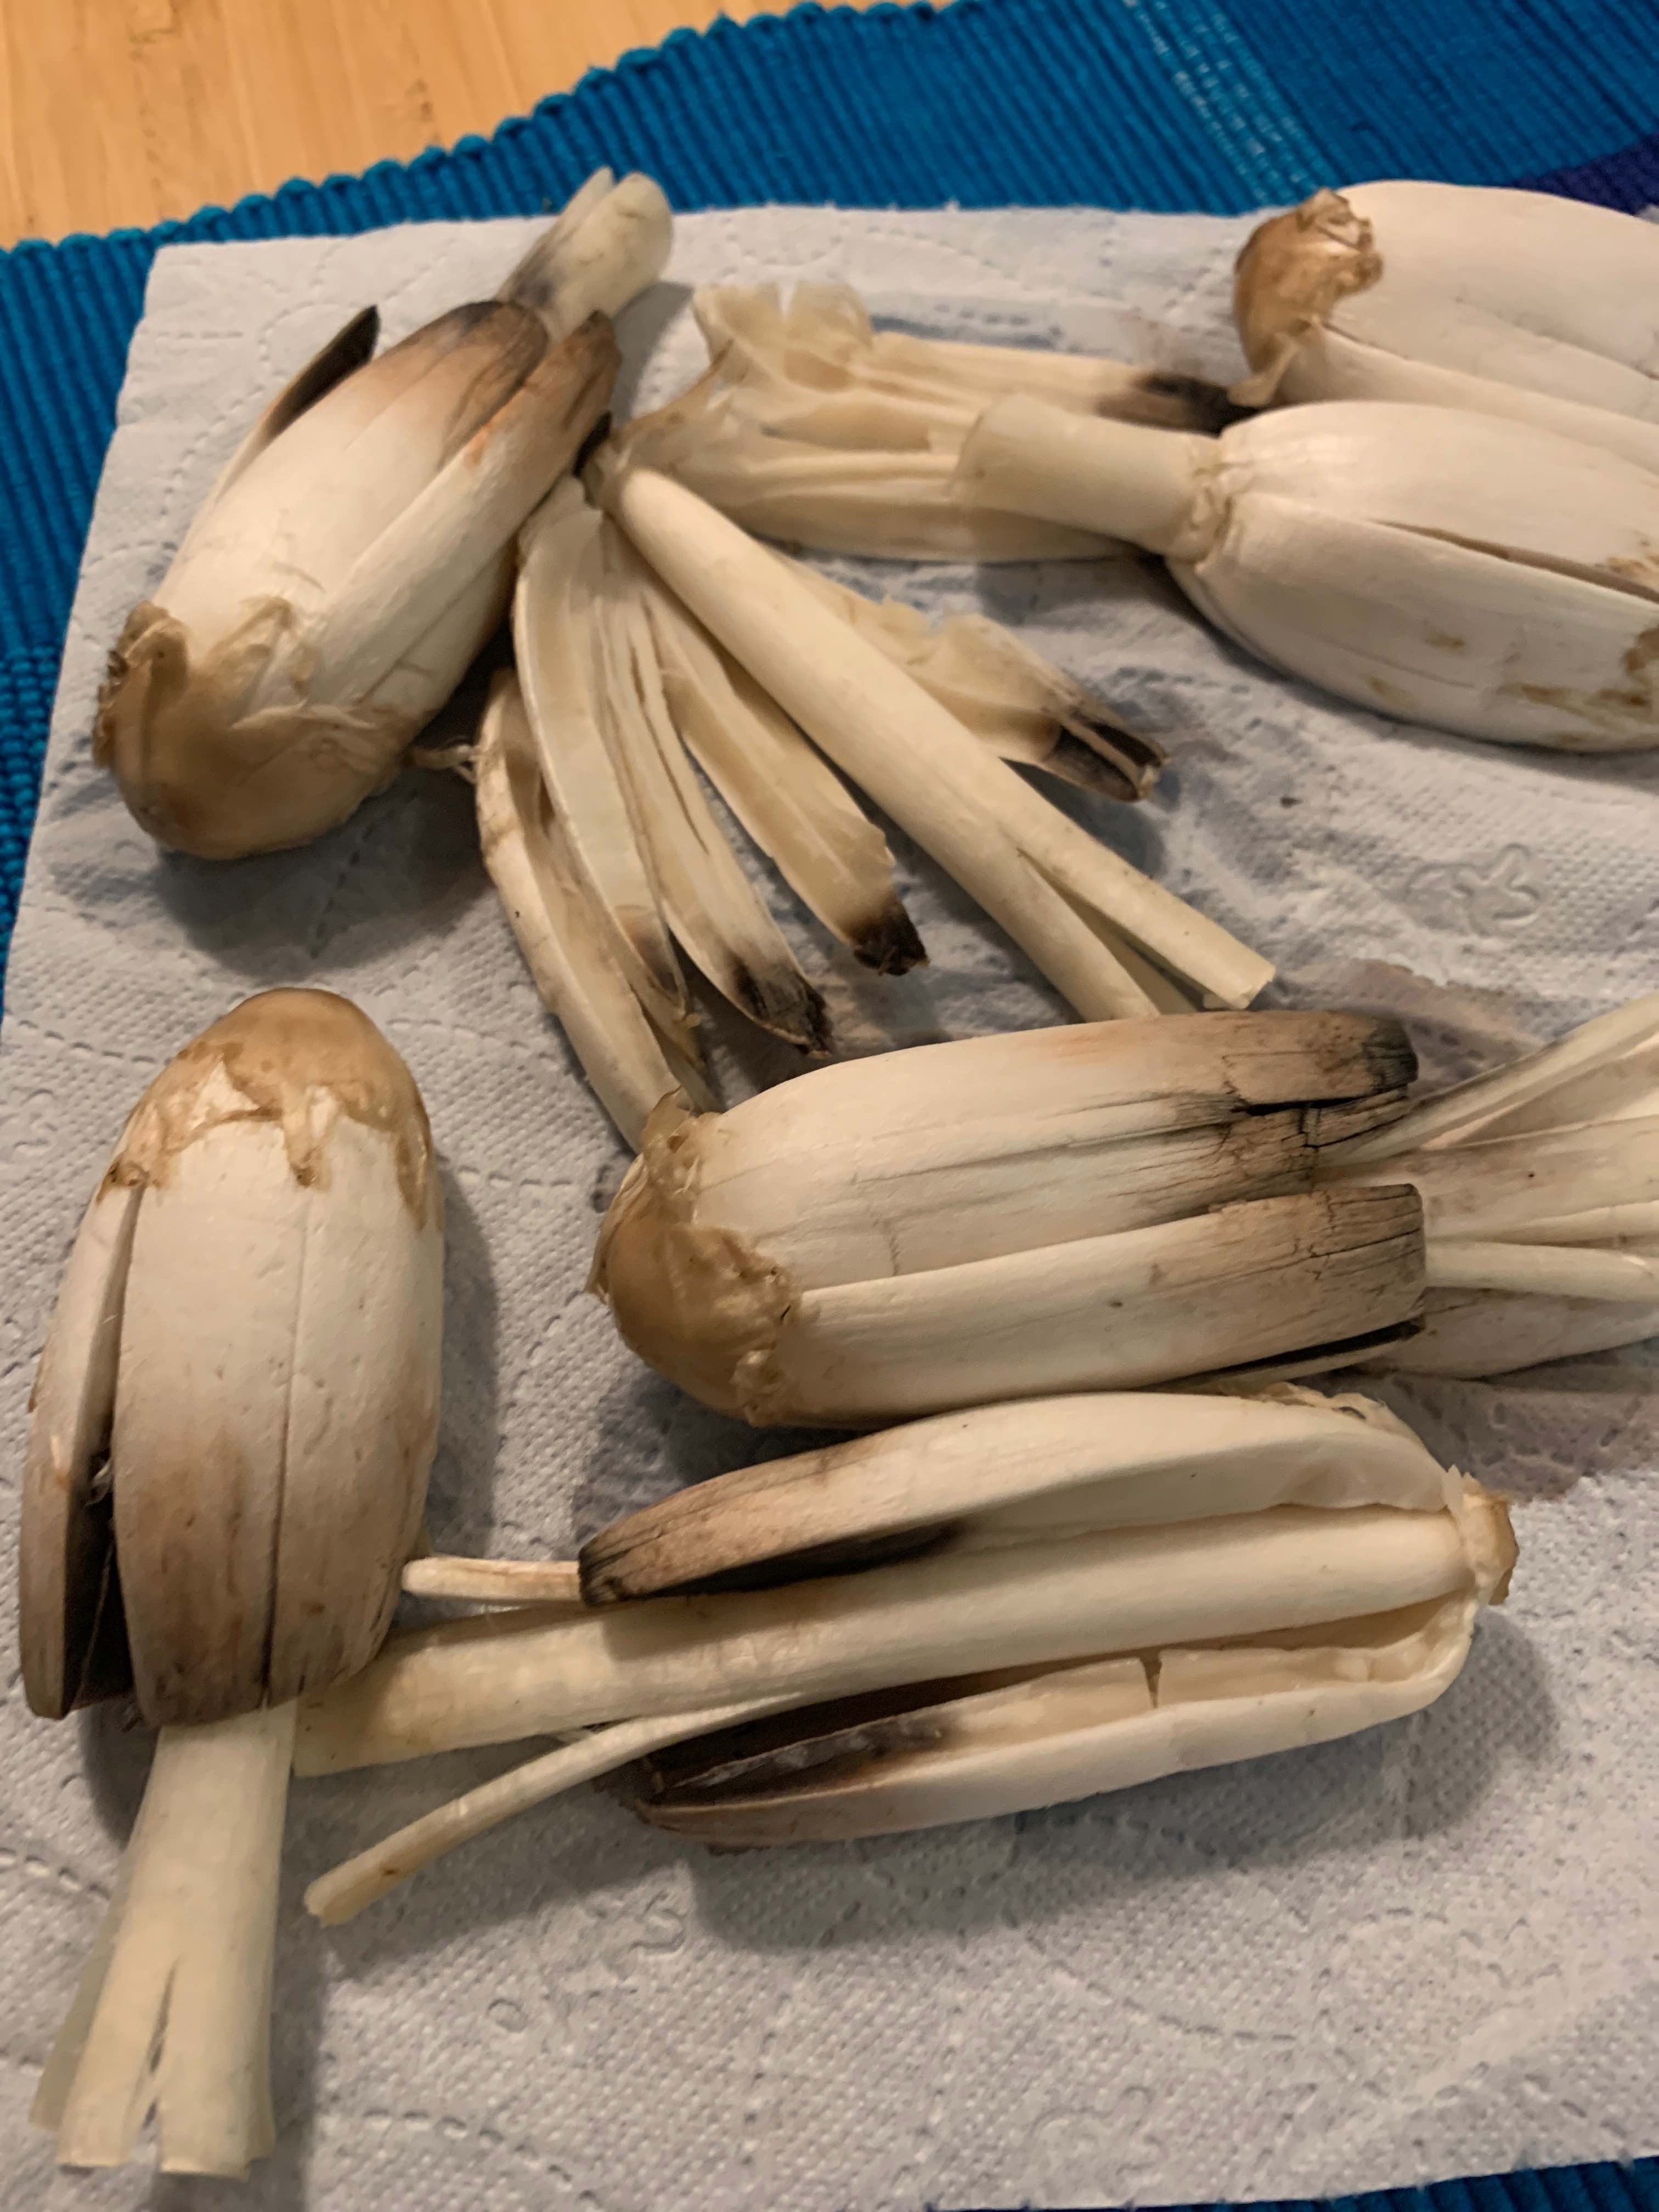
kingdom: Fungi
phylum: Basidiomycota
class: Agaricomycetes
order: Agaricales
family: Agaricaceae
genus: Coprinus
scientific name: Coprinus comatus
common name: stor parykhat
